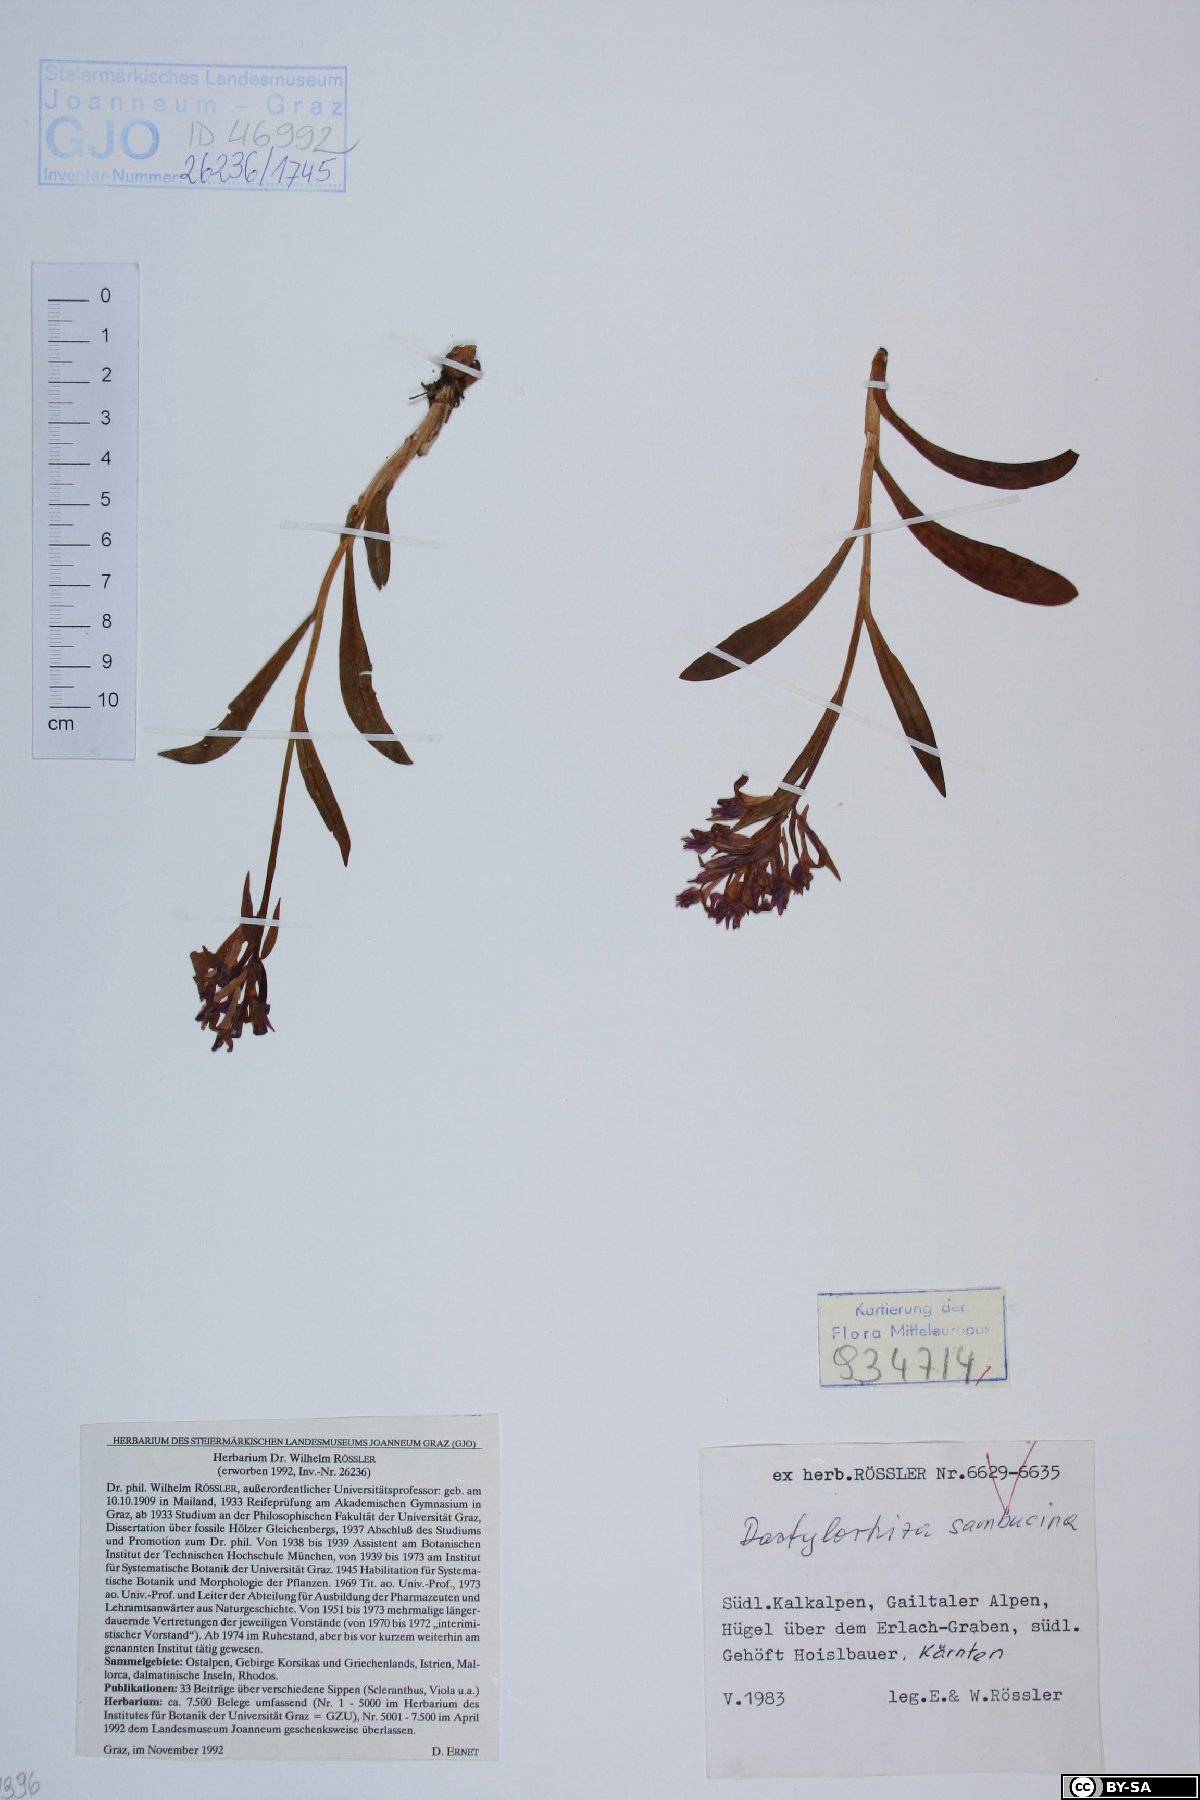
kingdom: Plantae
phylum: Tracheophyta
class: Liliopsida
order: Asparagales
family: Orchidaceae
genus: Dactylorhiza
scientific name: Dactylorhiza sambucina
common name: Elder-flowered orchid
